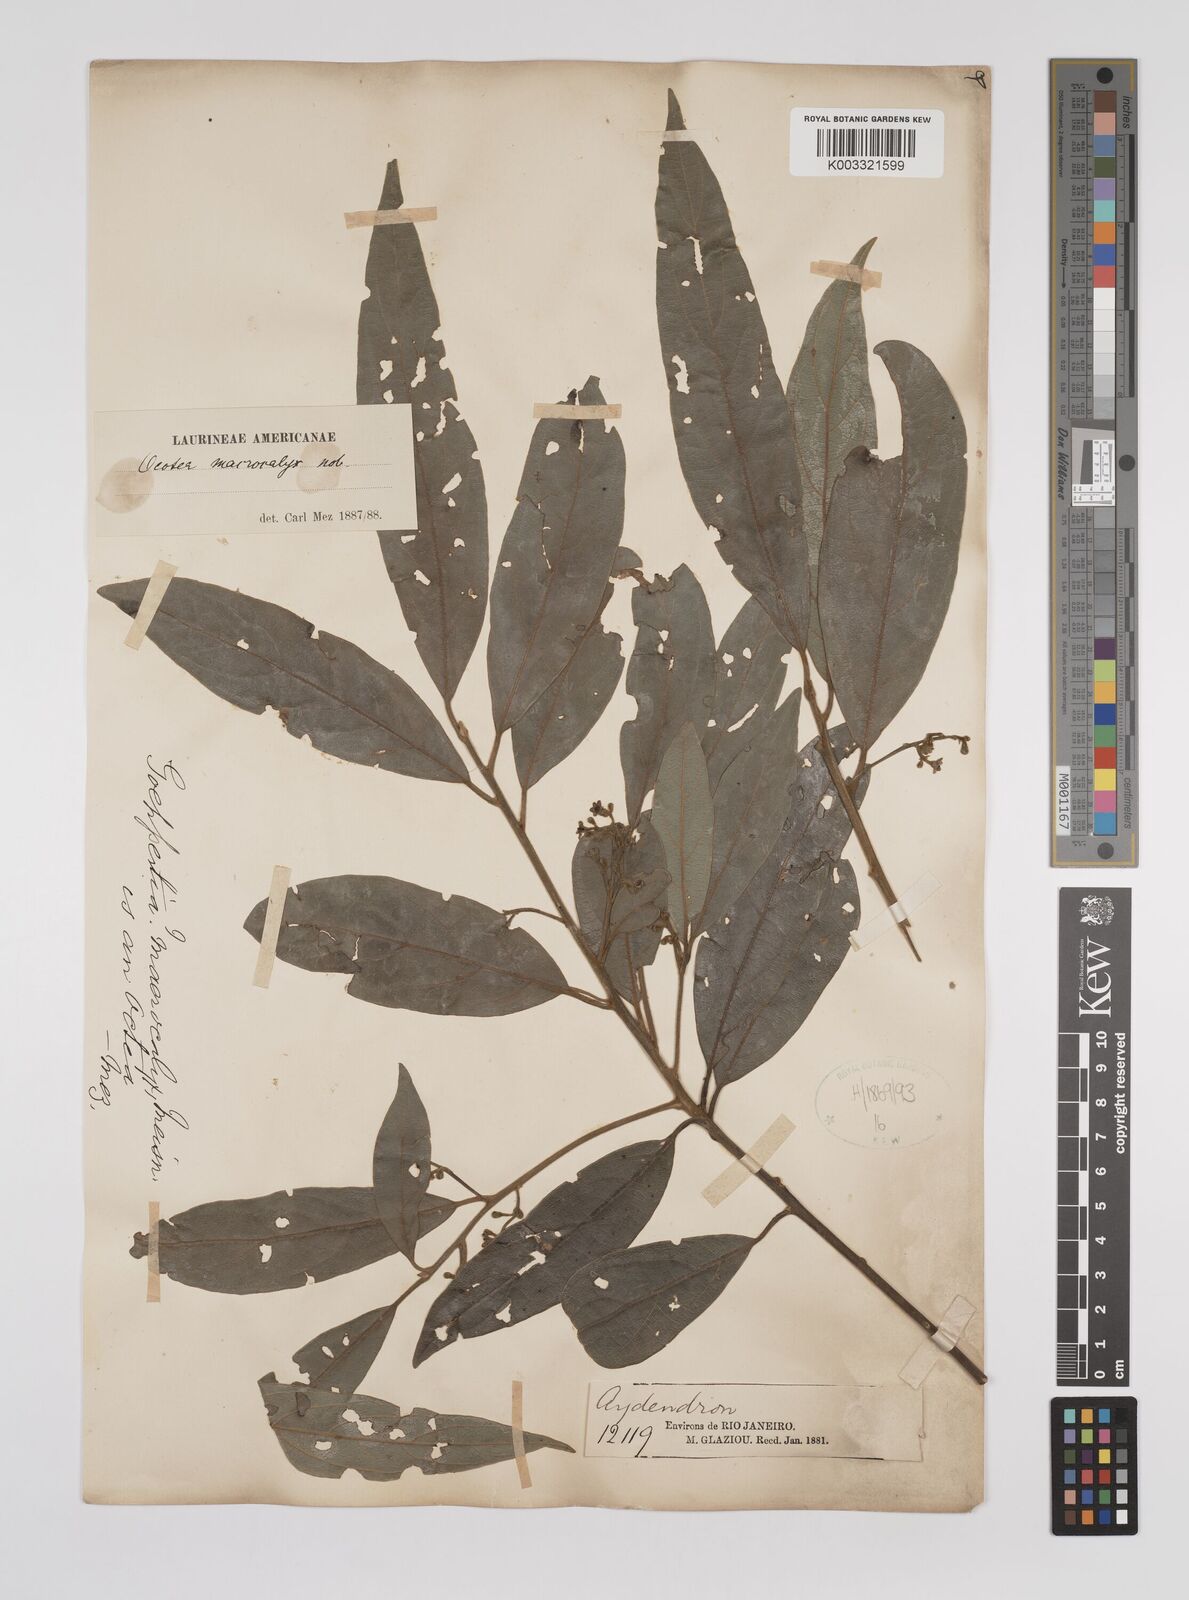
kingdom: Plantae
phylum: Tracheophyta
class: Magnoliopsida
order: Laurales
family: Lauraceae
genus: Rhodostemonodaphne
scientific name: Rhodostemonodaphne macrocalyx
